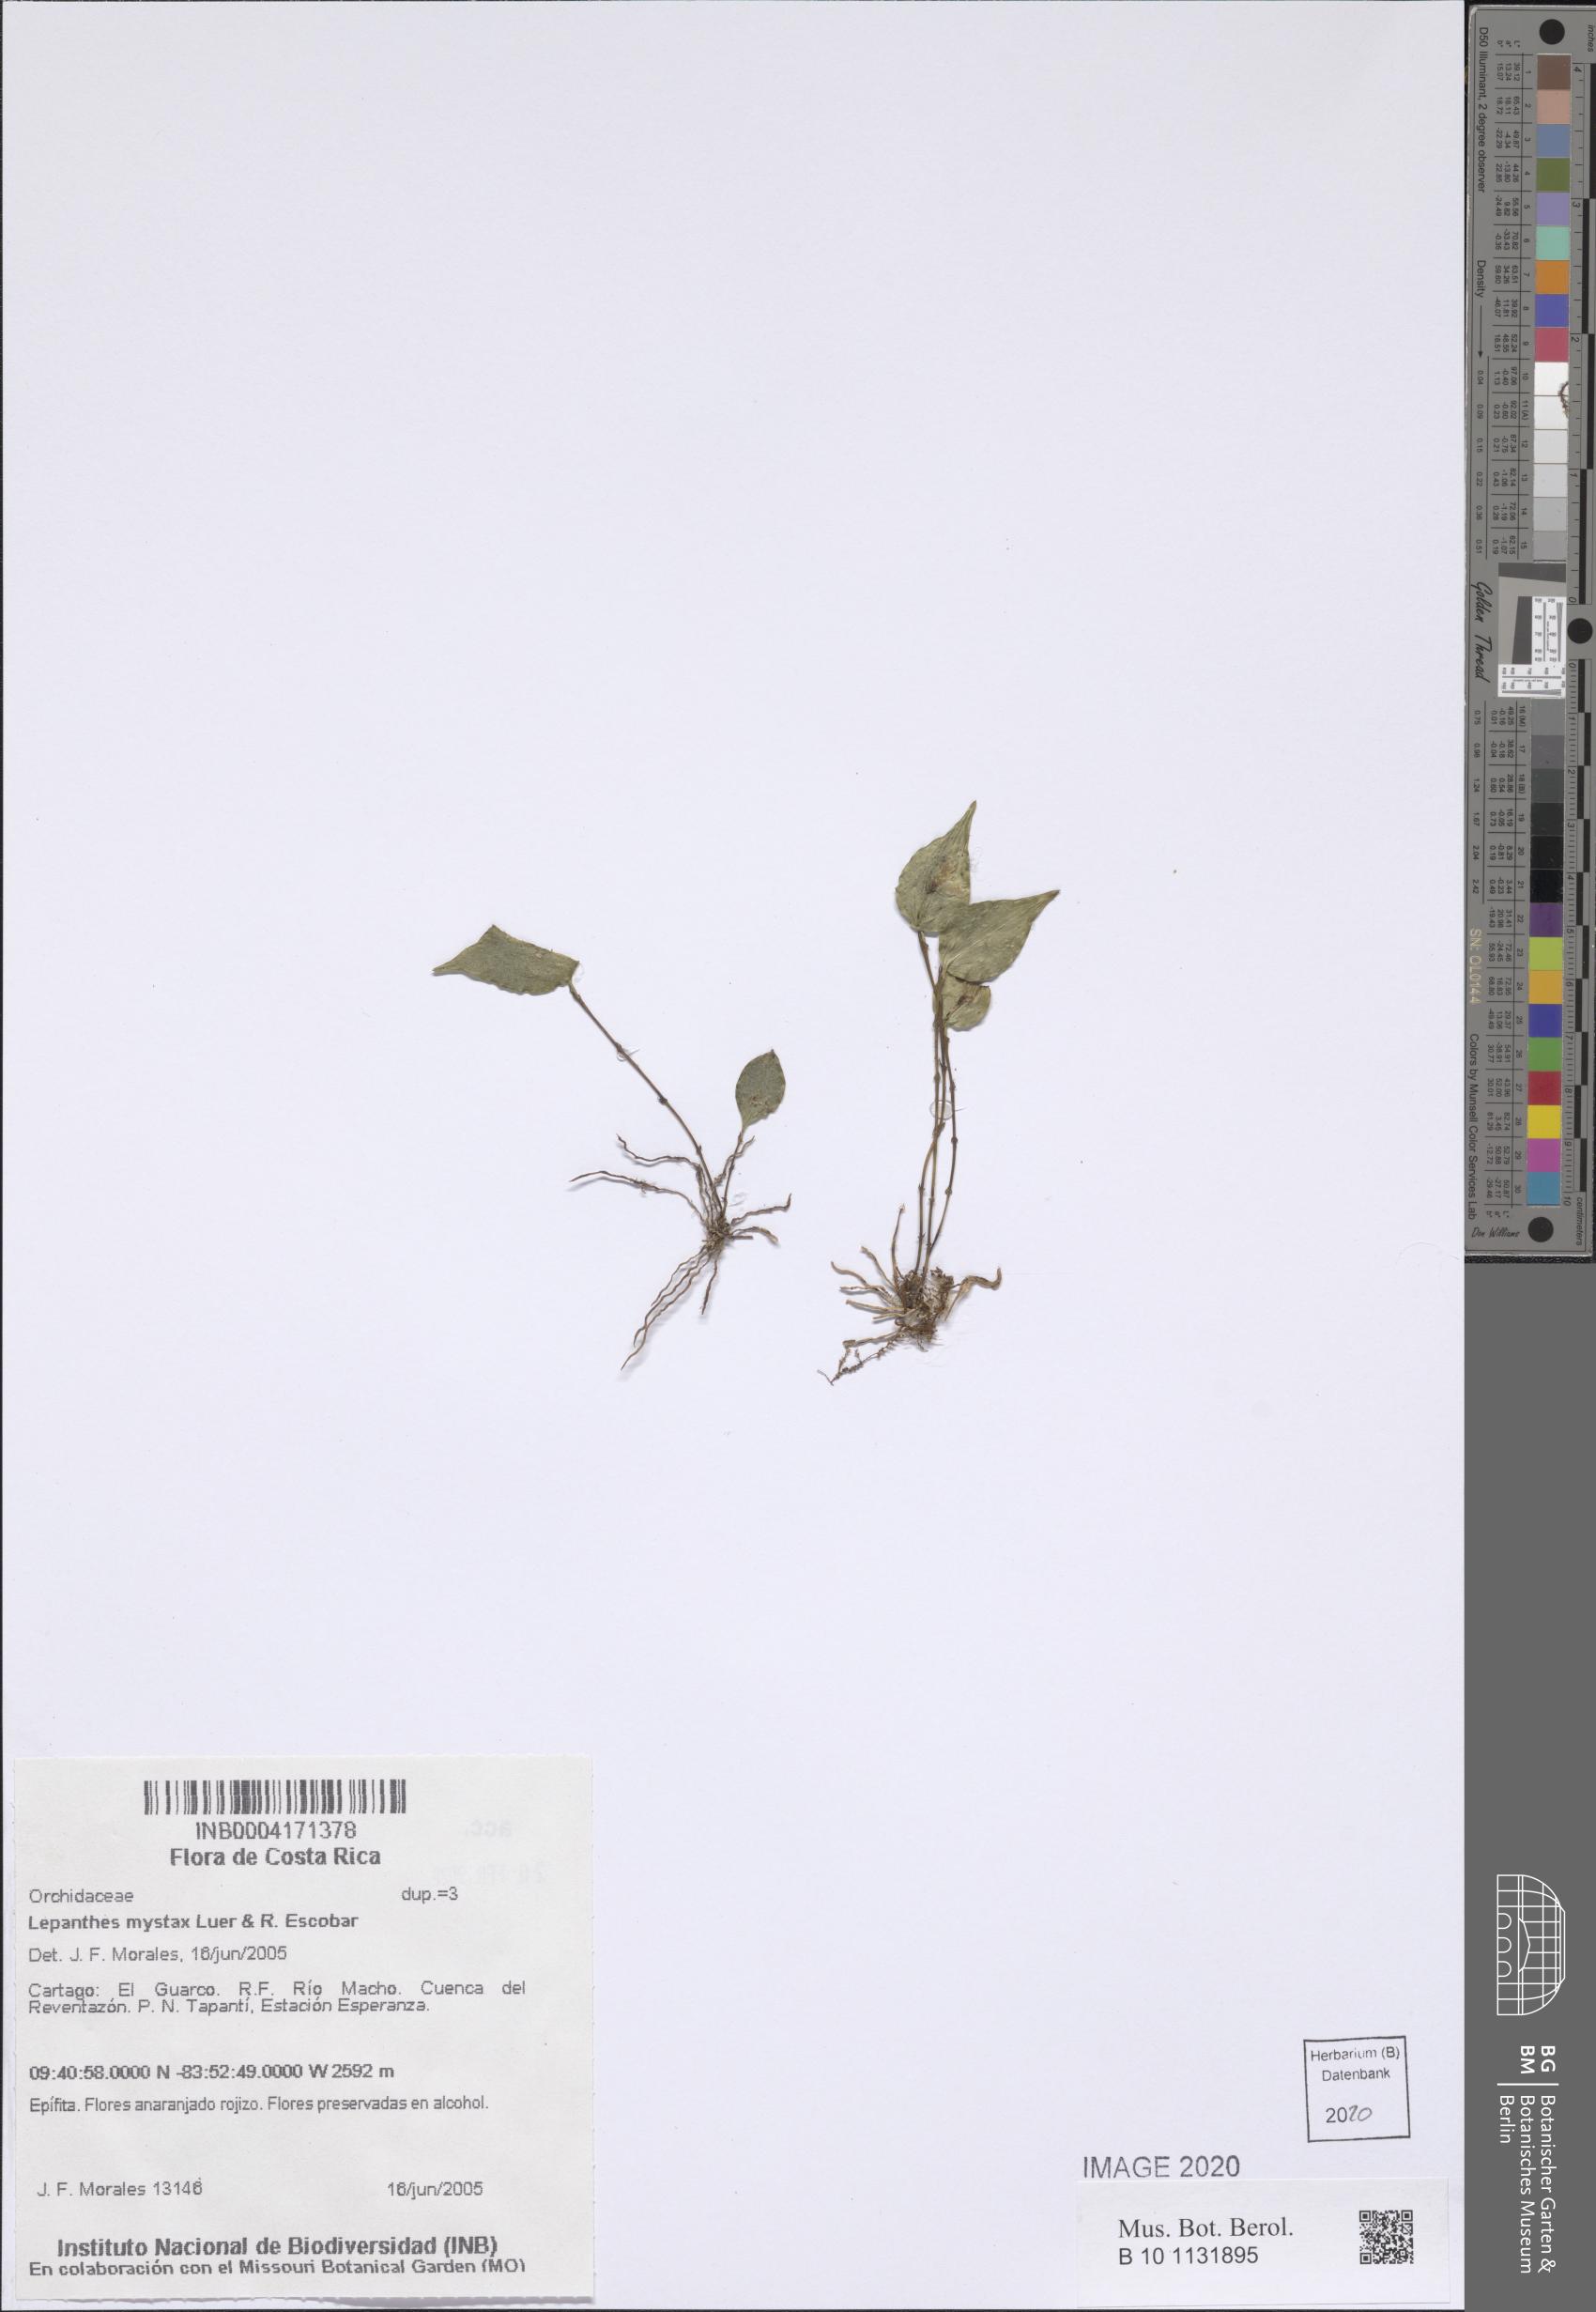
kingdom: Plantae
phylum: Tracheophyta
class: Liliopsida
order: Asparagales
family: Orchidaceae
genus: Lepanthes
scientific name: Lepanthes mystax
